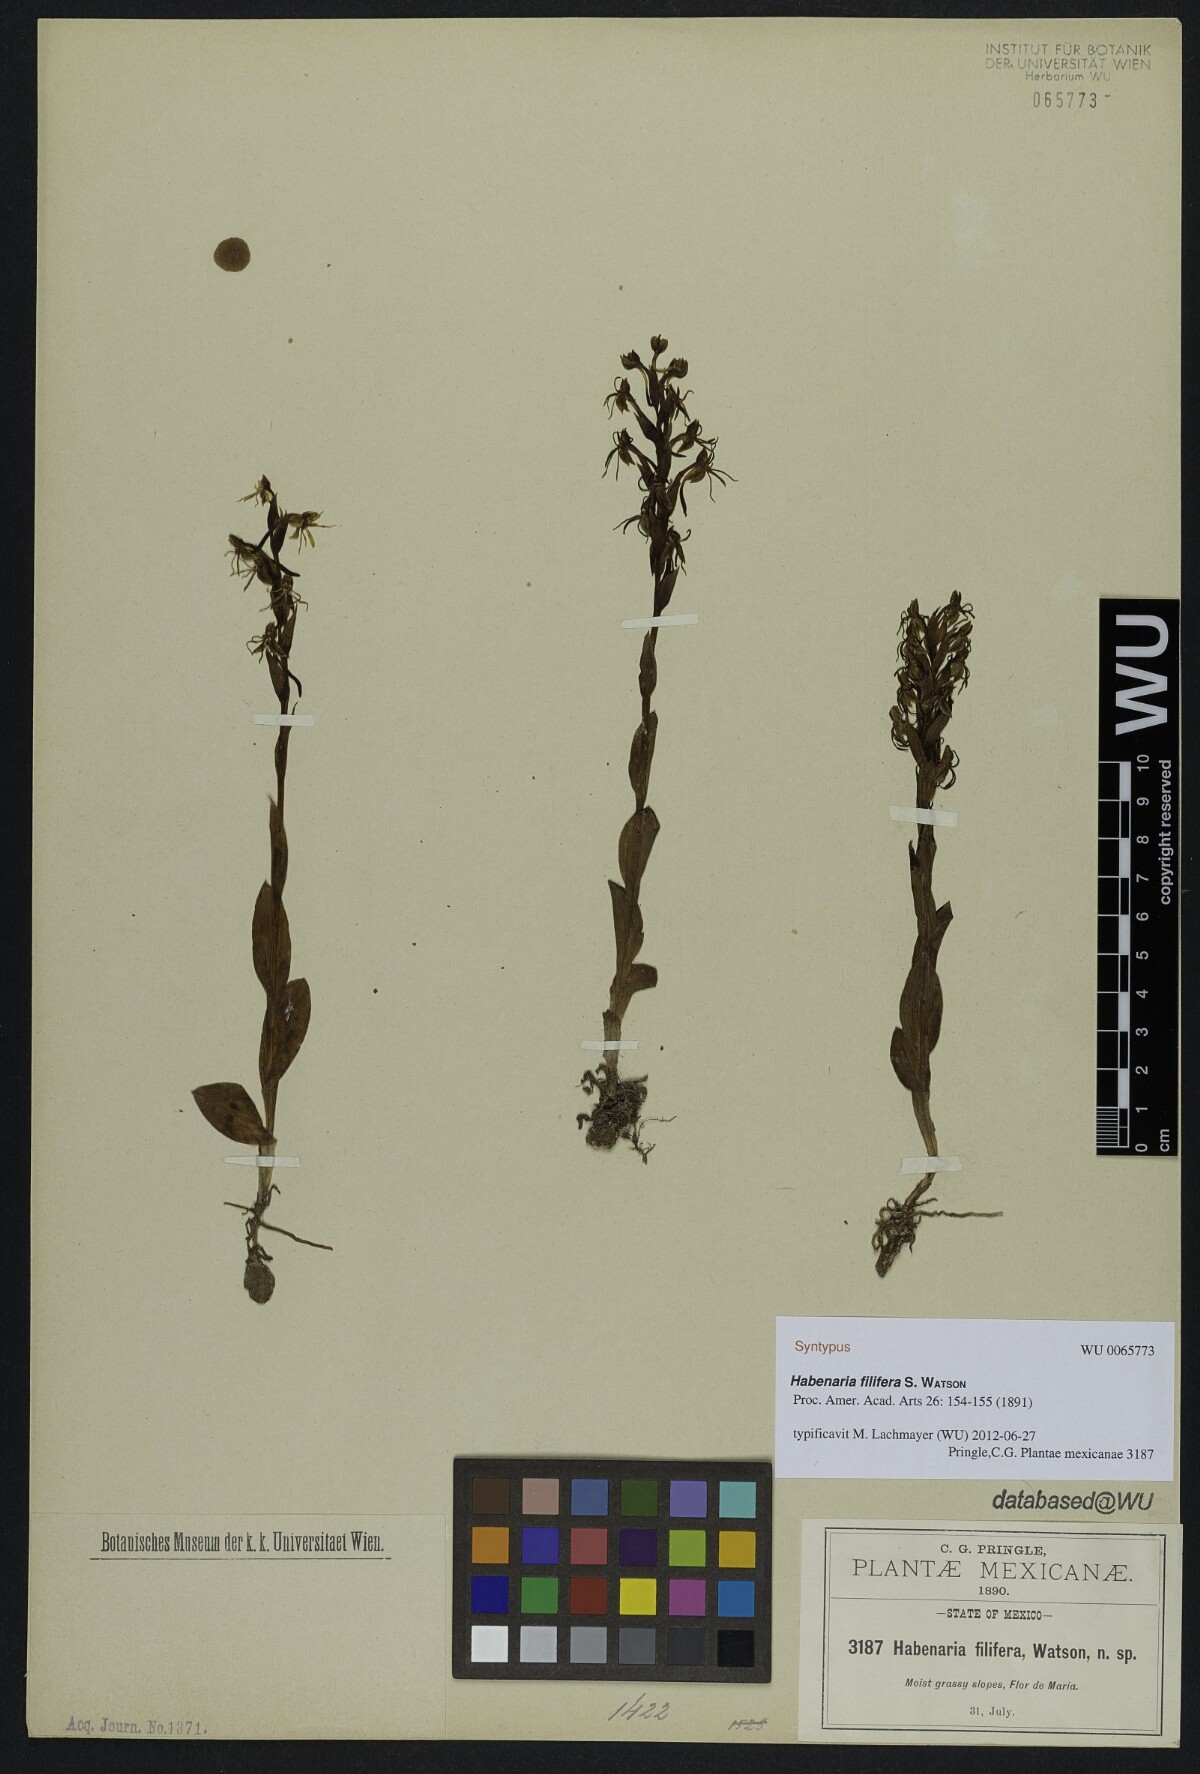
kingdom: Plantae
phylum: Tracheophyta
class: Liliopsida
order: Asparagales
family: Orchidaceae
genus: Habenaria
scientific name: Habenaria filifera
